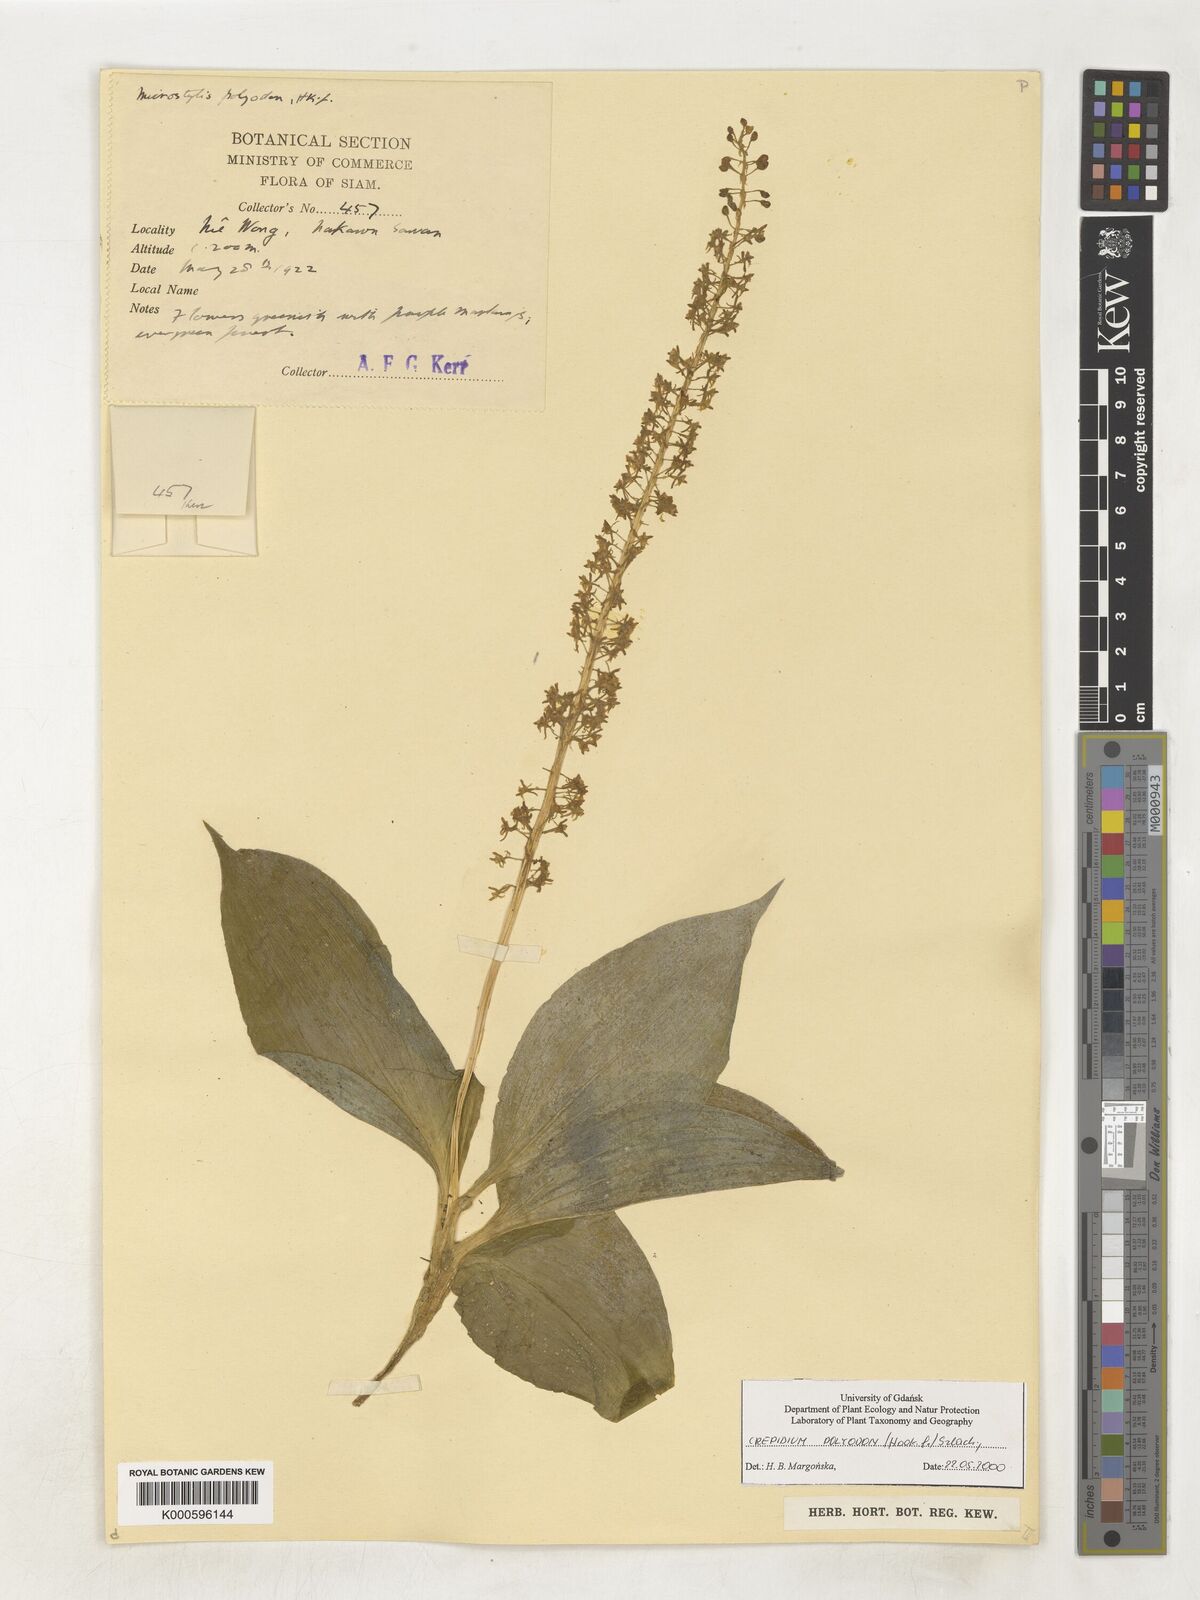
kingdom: Plantae
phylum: Tracheophyta
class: Liliopsida
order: Asparagales
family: Orchidaceae
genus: Crepidium
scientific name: Crepidium polyodon
